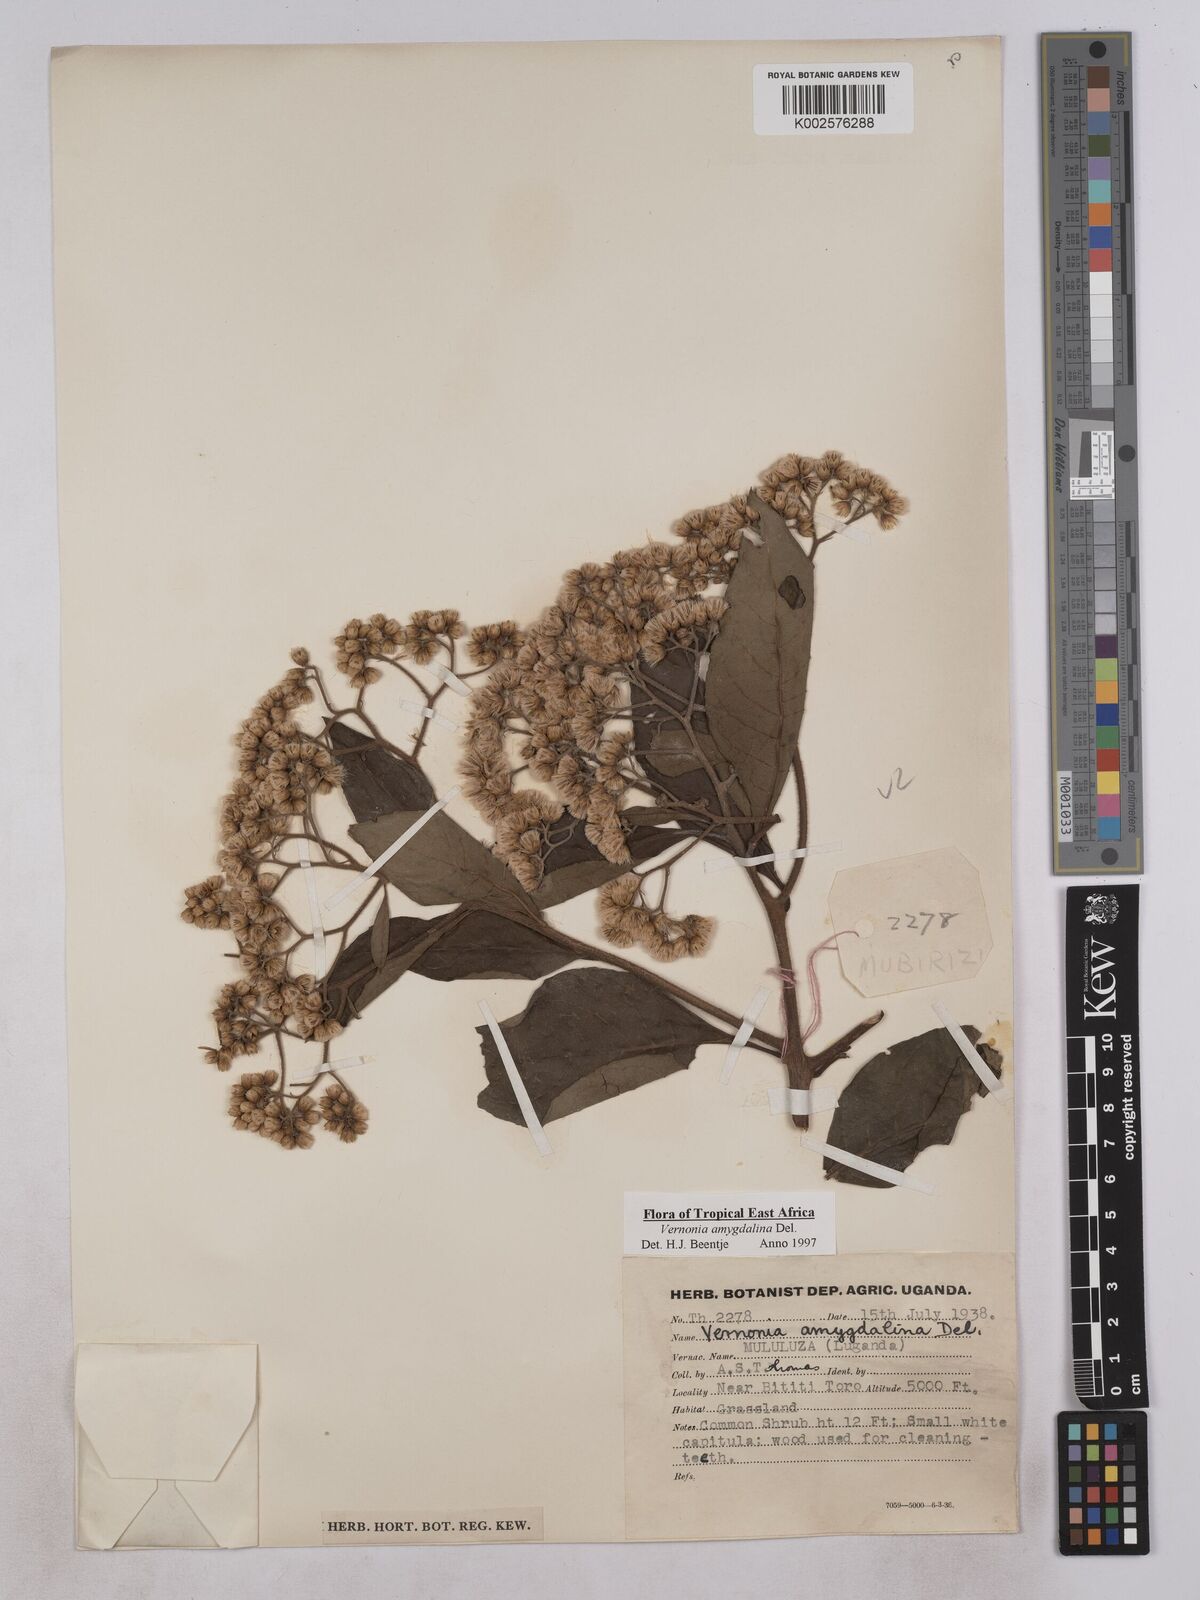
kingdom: Plantae
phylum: Tracheophyta
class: Magnoliopsida
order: Asterales
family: Asteraceae
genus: Gymnanthemum
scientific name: Gymnanthemum amygdalinum
